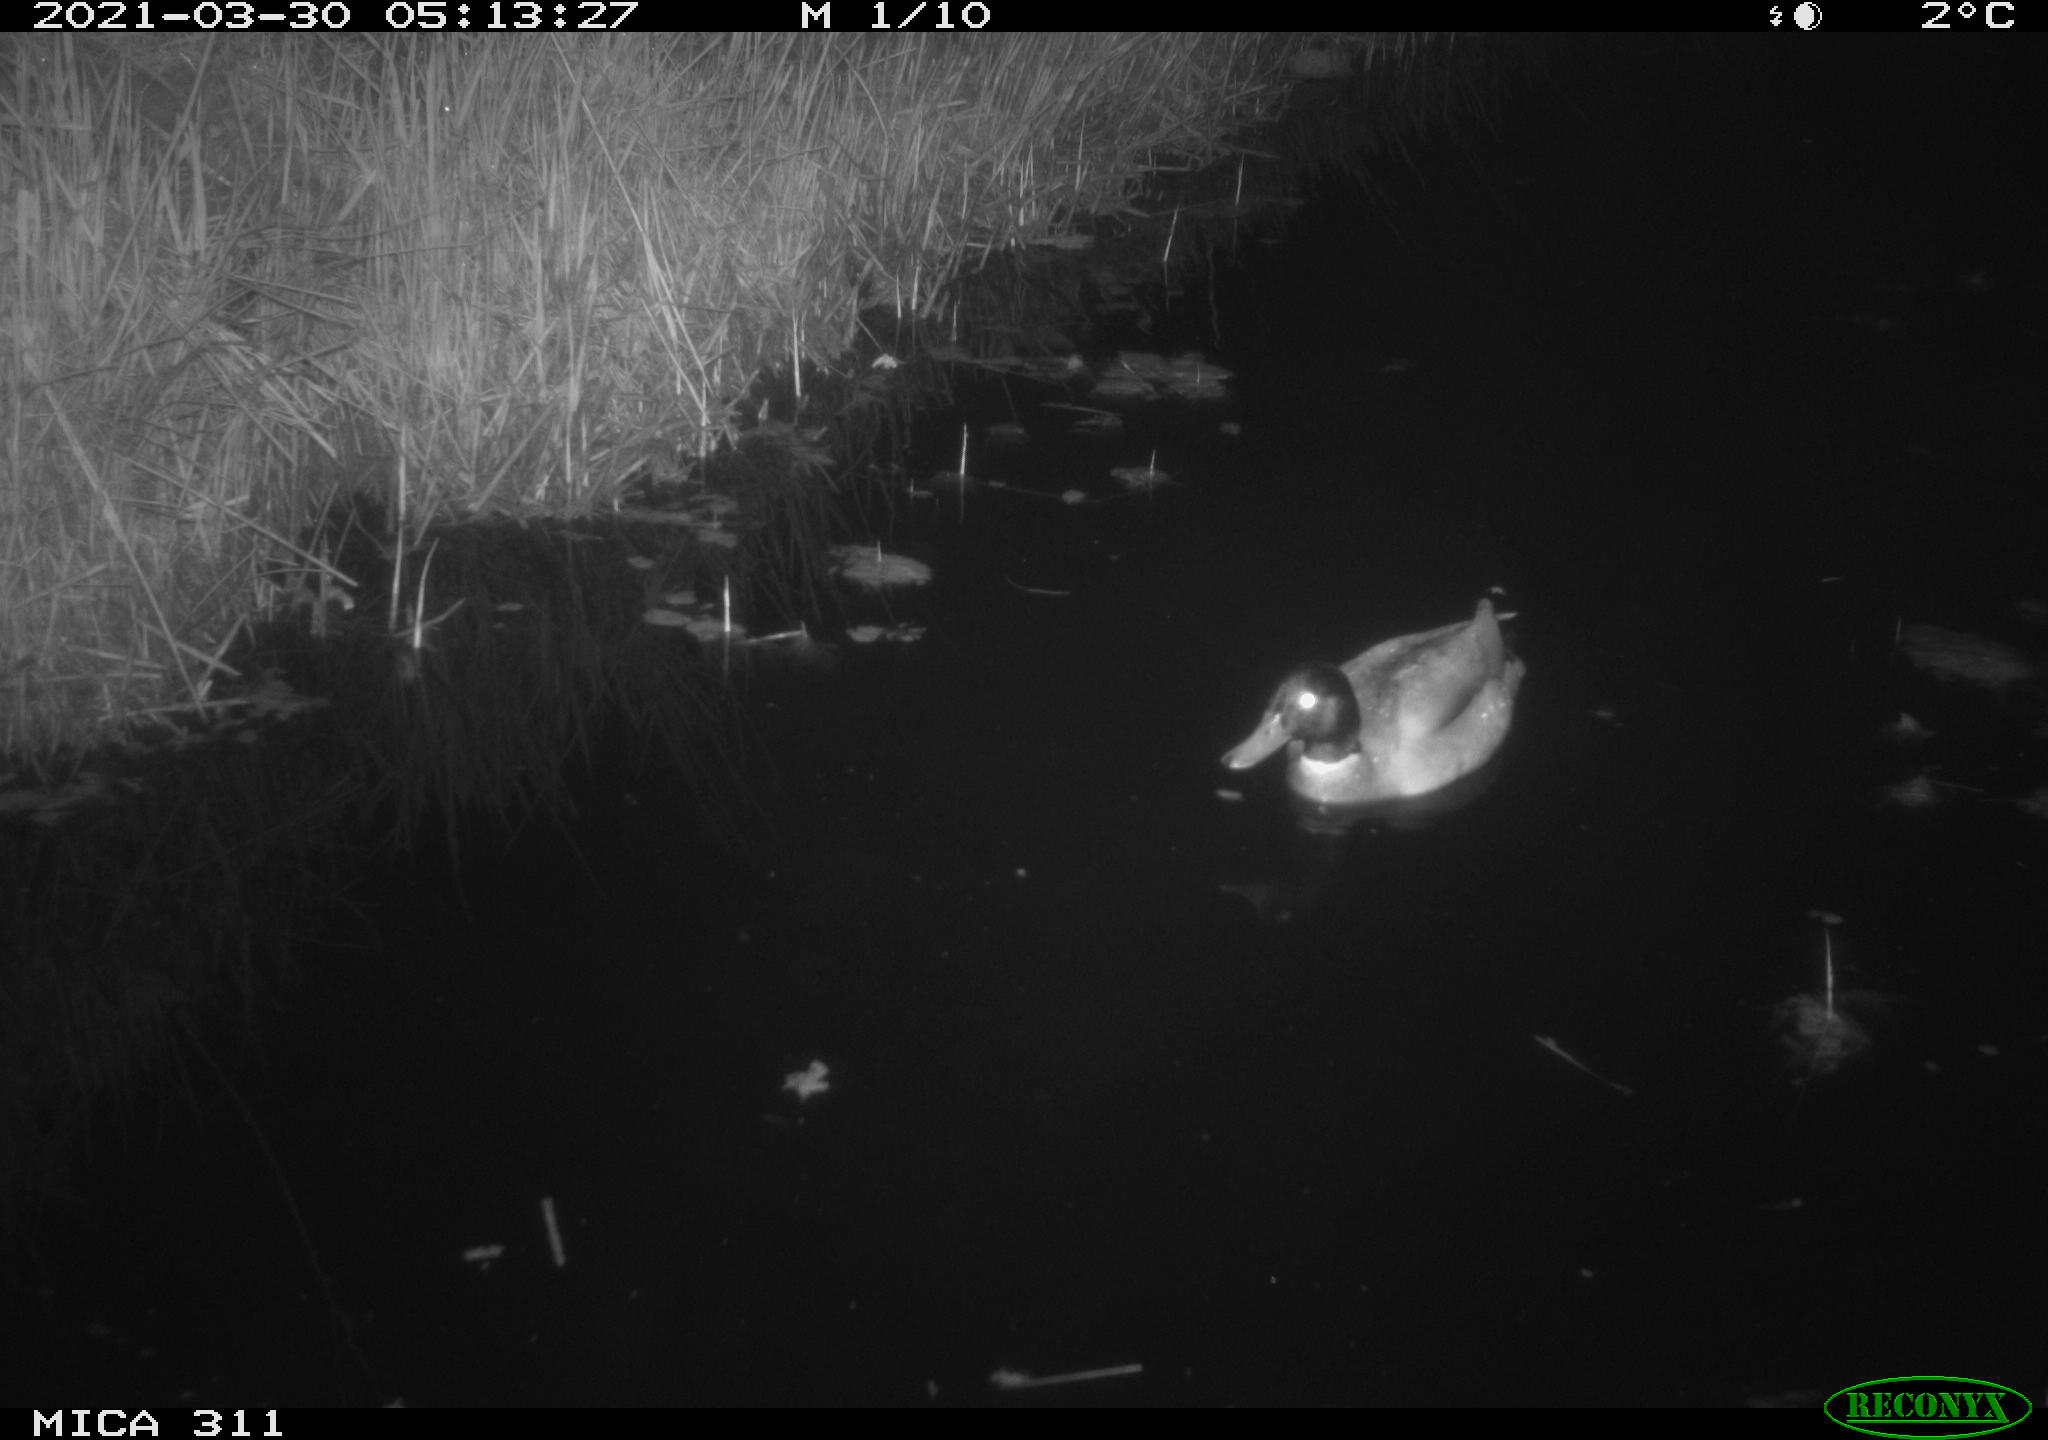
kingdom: Animalia
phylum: Chordata
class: Aves
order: Anseriformes
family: Anatidae
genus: Anas
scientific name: Anas
